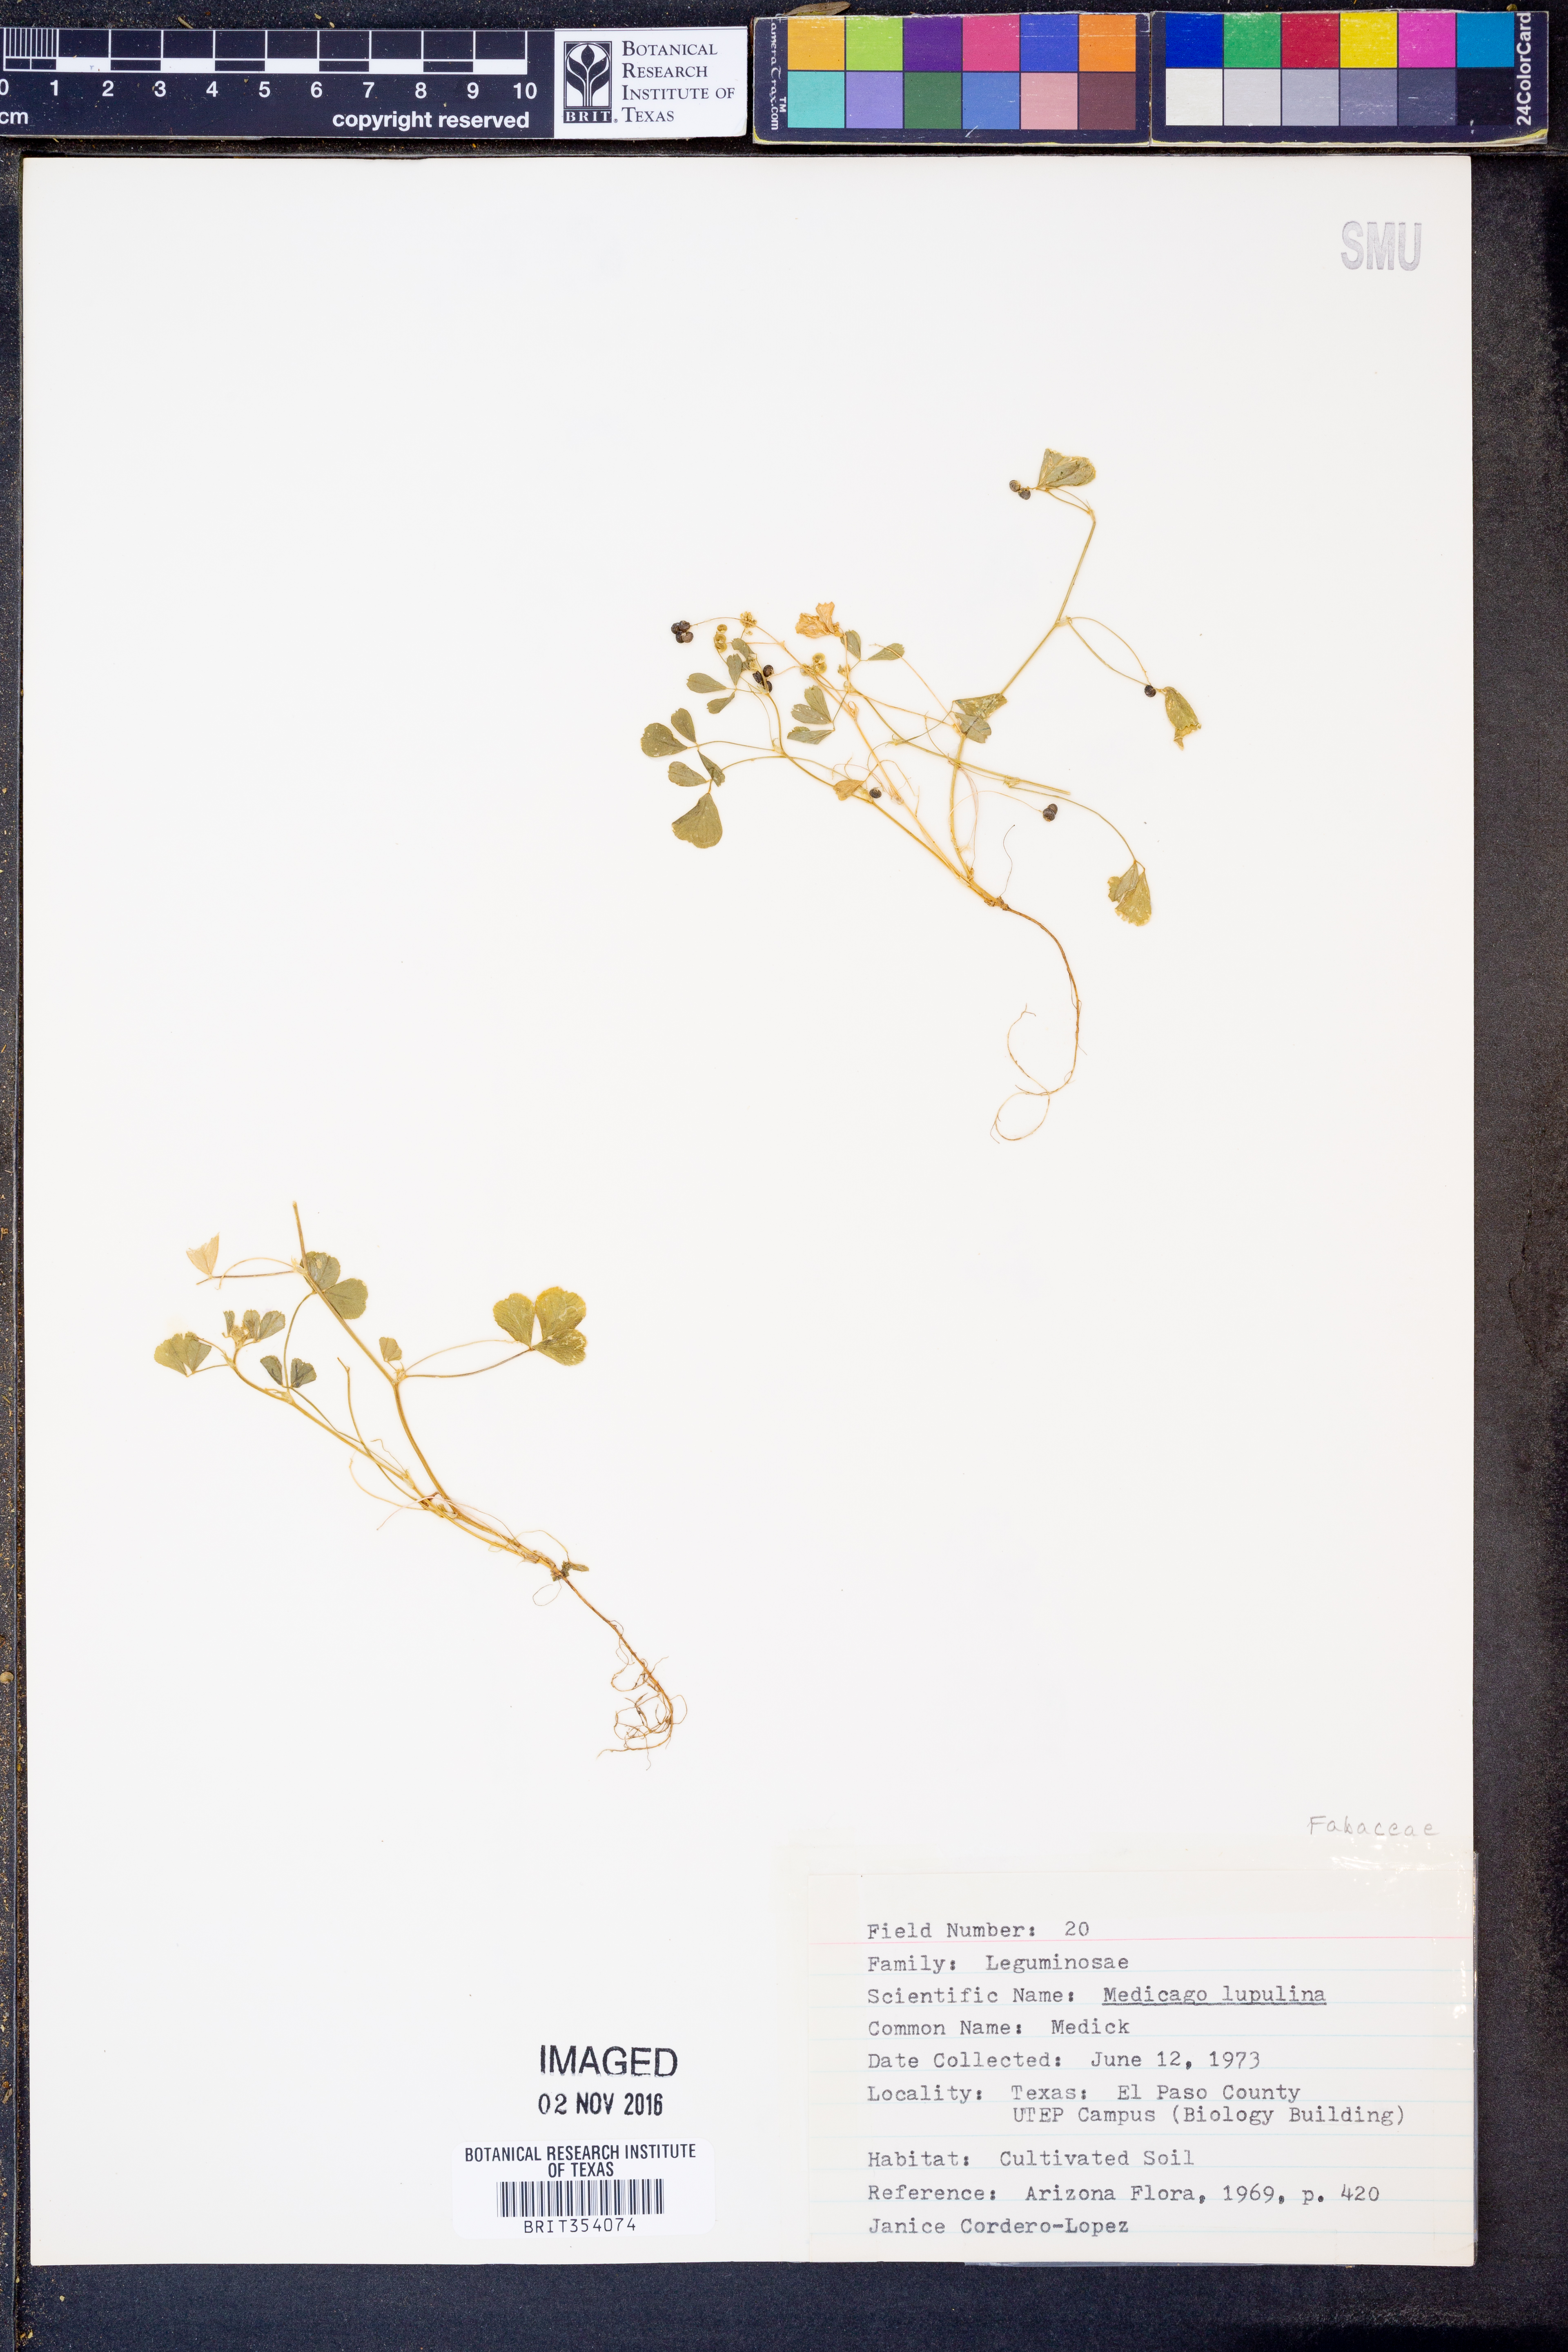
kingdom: Plantae
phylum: Tracheophyta
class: Magnoliopsida
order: Fabales
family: Fabaceae
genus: Medicago
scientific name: Medicago lupulina
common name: Black medick
